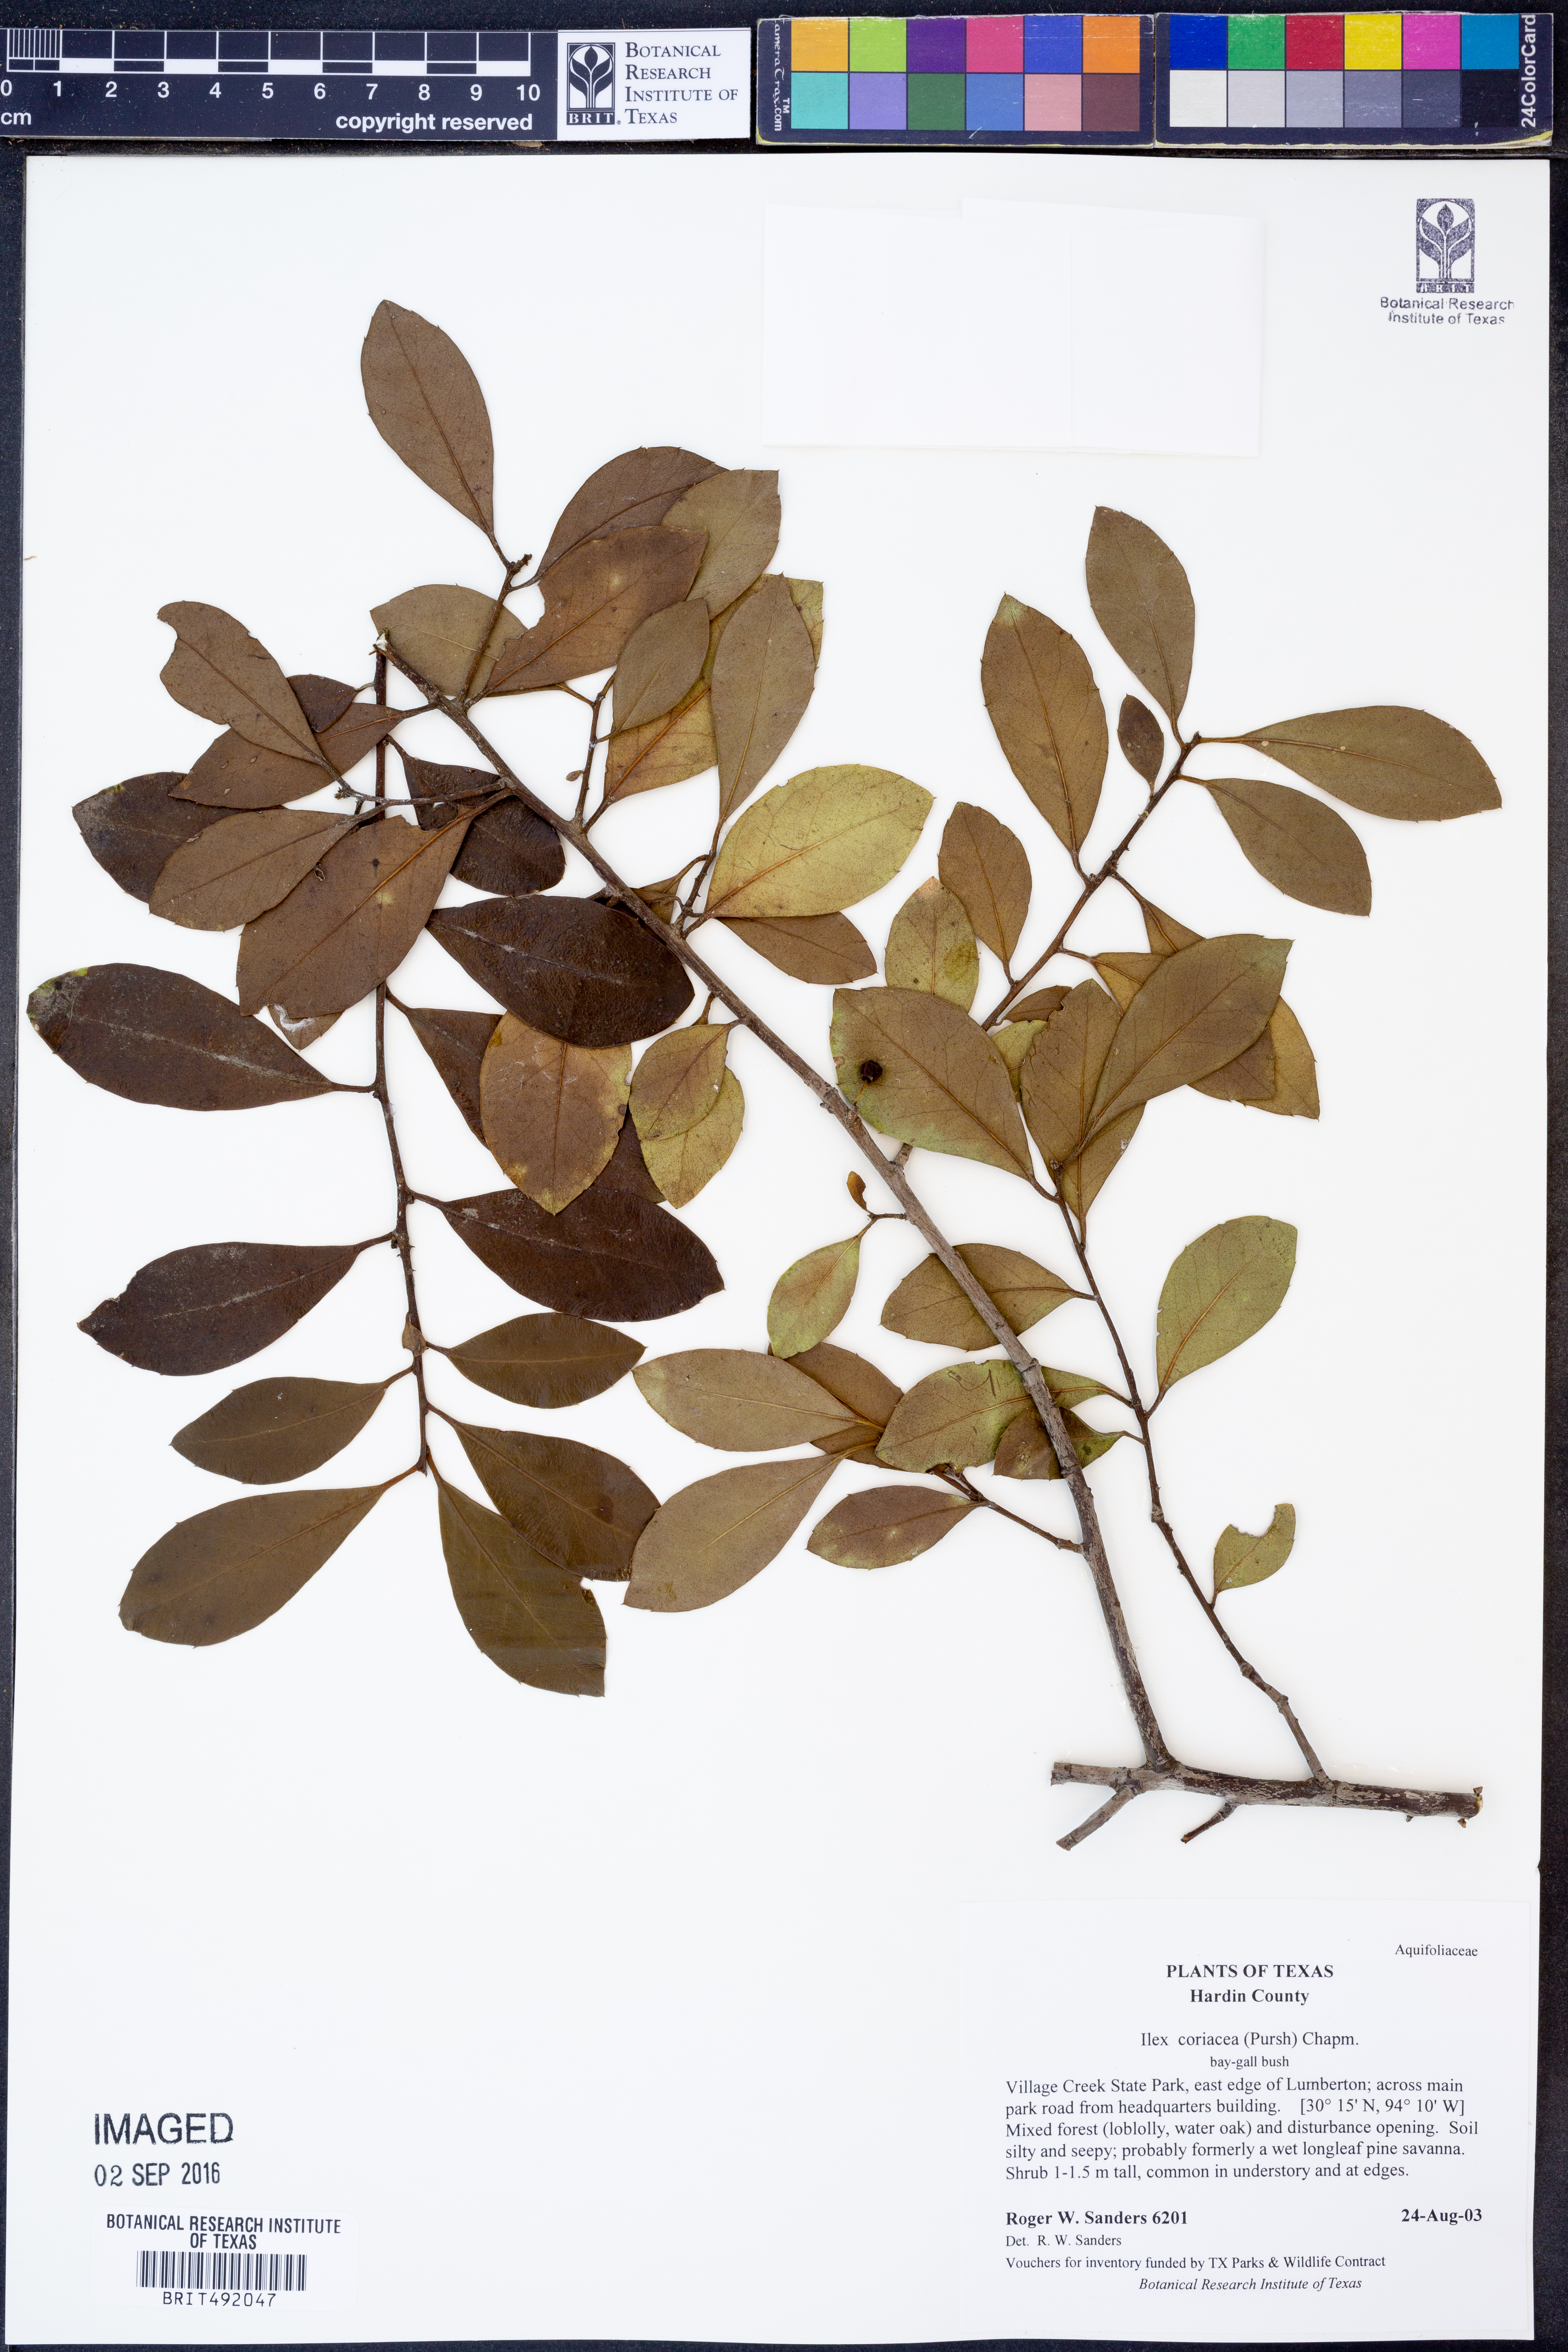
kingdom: Plantae
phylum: Tracheophyta
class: Magnoliopsida
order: Aquifoliales
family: Aquifoliaceae
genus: Ilex
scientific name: Ilex coriacea
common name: Sweet gallberry
